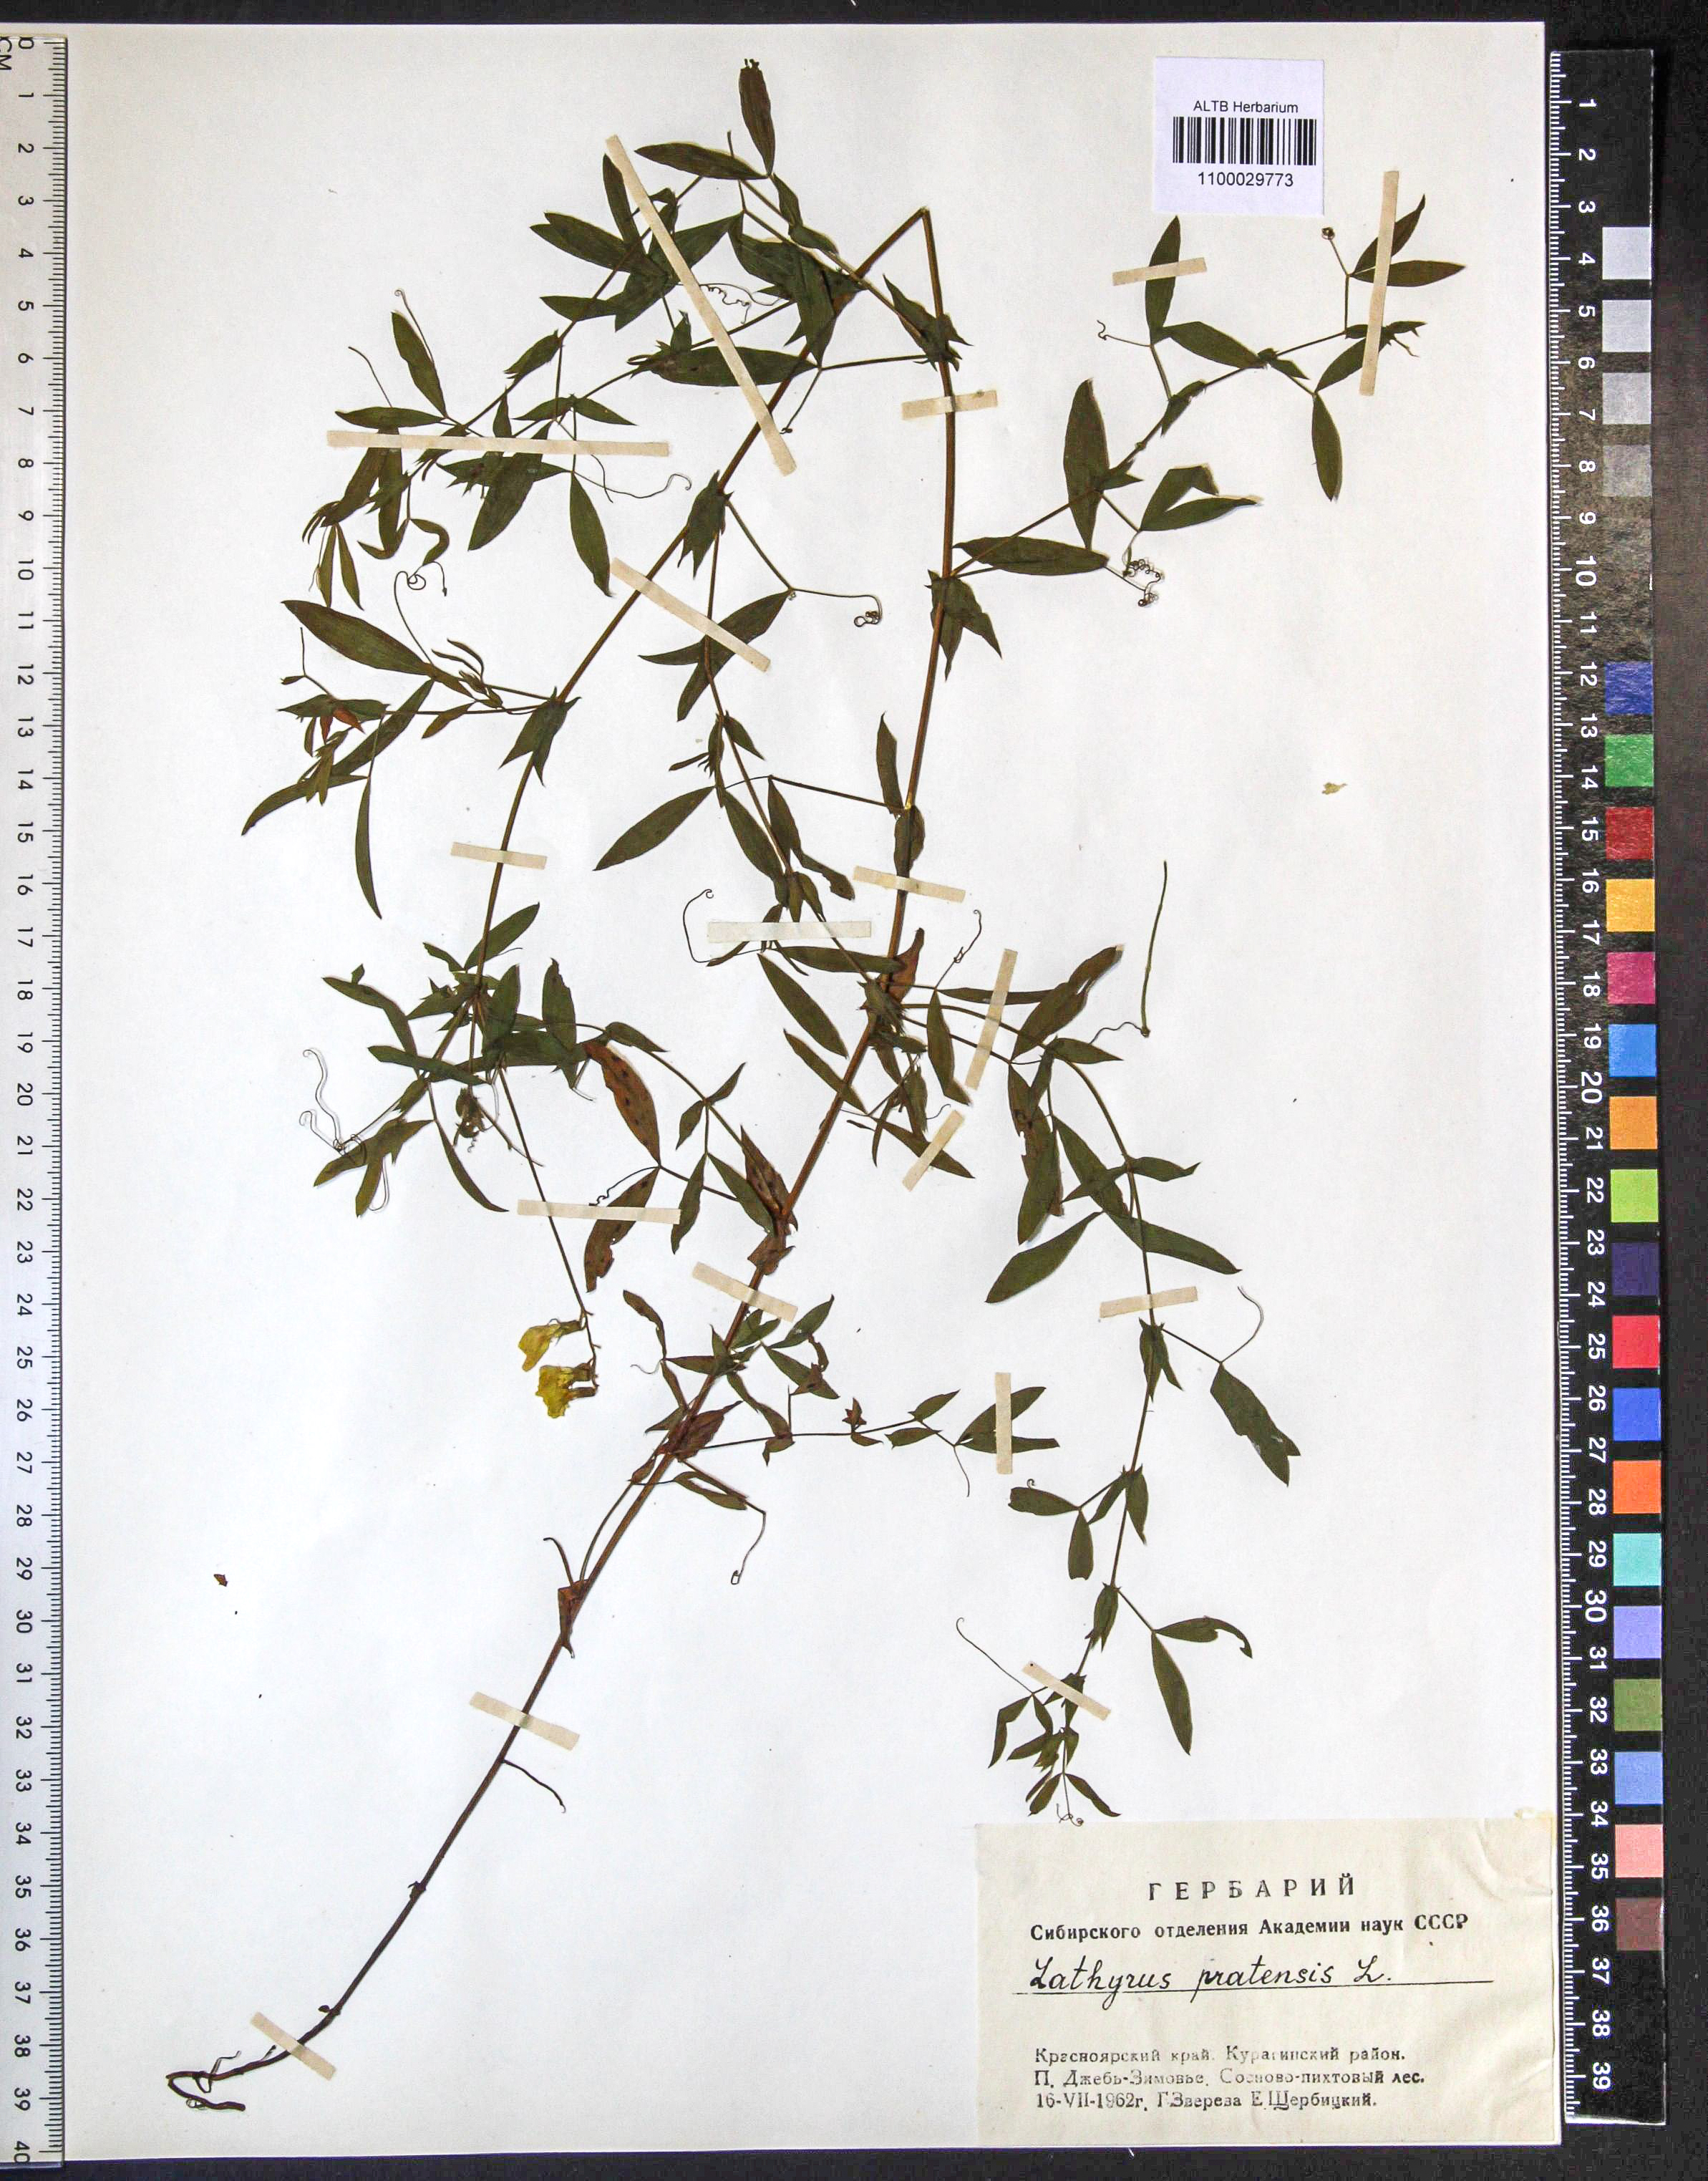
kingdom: Plantae
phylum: Tracheophyta
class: Magnoliopsida
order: Fabales
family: Fabaceae
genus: Lathyrus
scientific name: Lathyrus pratensis
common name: Meadow vetchling
